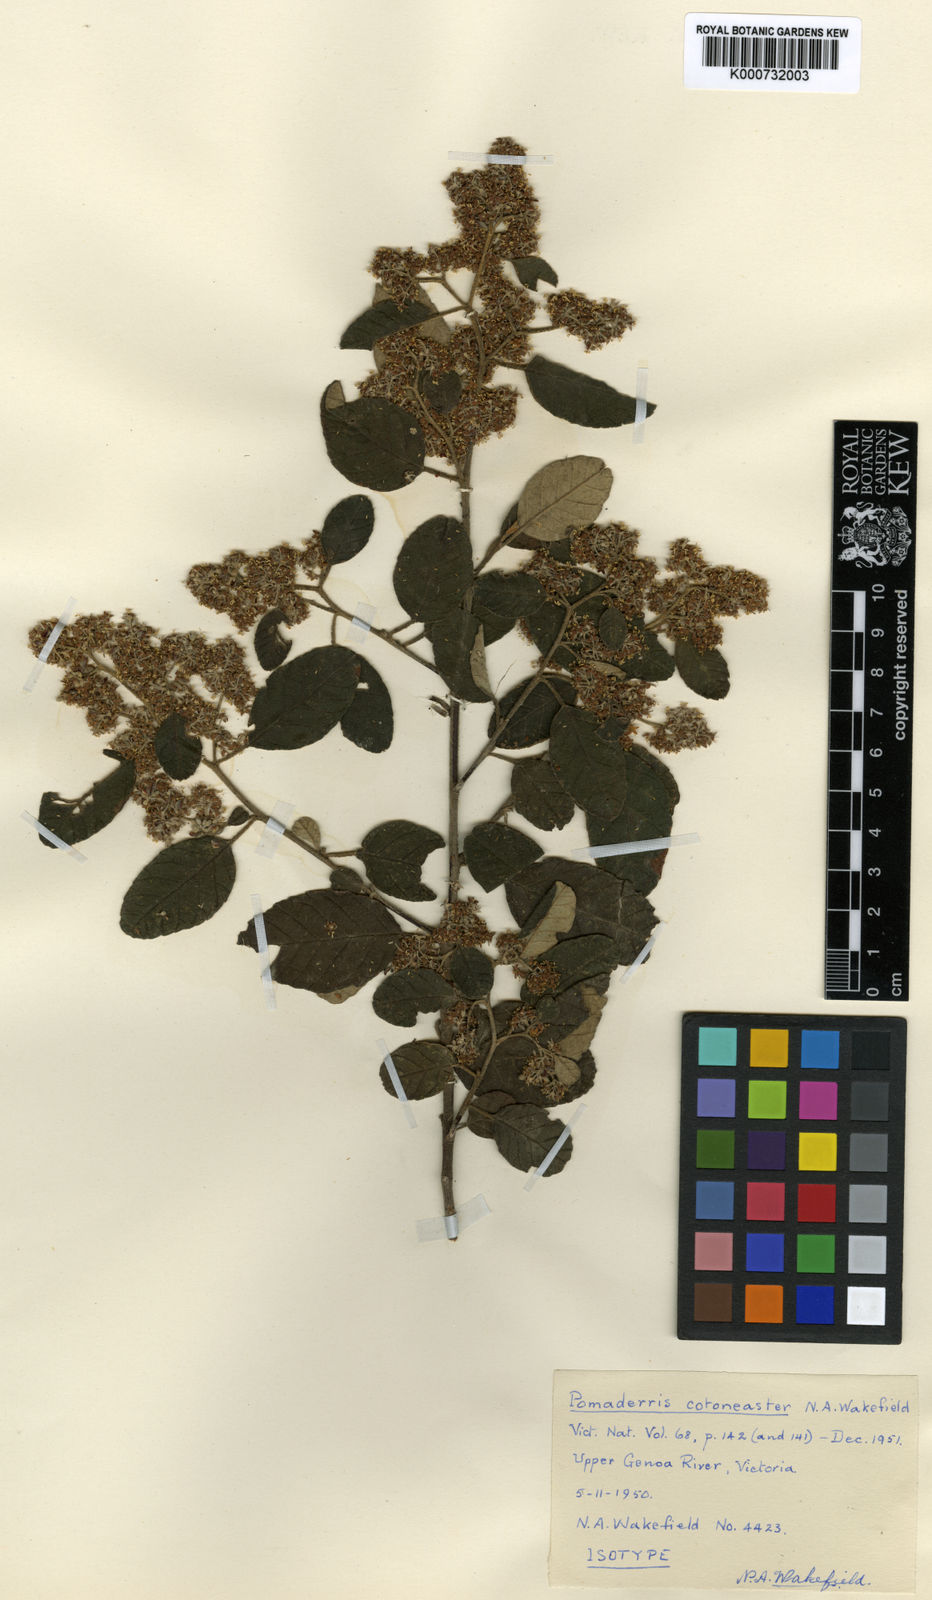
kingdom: Plantae
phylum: Tracheophyta
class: Magnoliopsida
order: Rosales
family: Rhamnaceae
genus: Pomaderris
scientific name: Pomaderris cotoneaster
